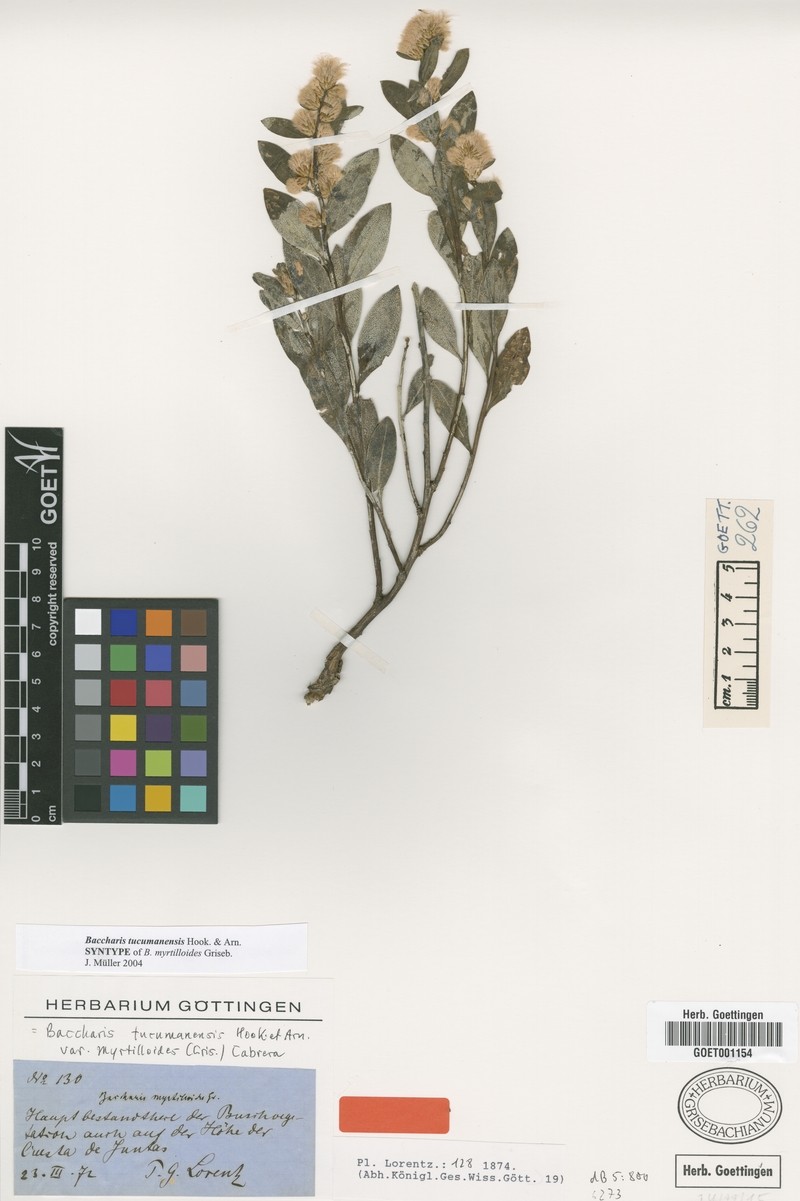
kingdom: Plantae
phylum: Tracheophyta
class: Magnoliopsida
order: Asterales
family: Asteraceae
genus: Baccharis
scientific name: Baccharis tucumanensis
